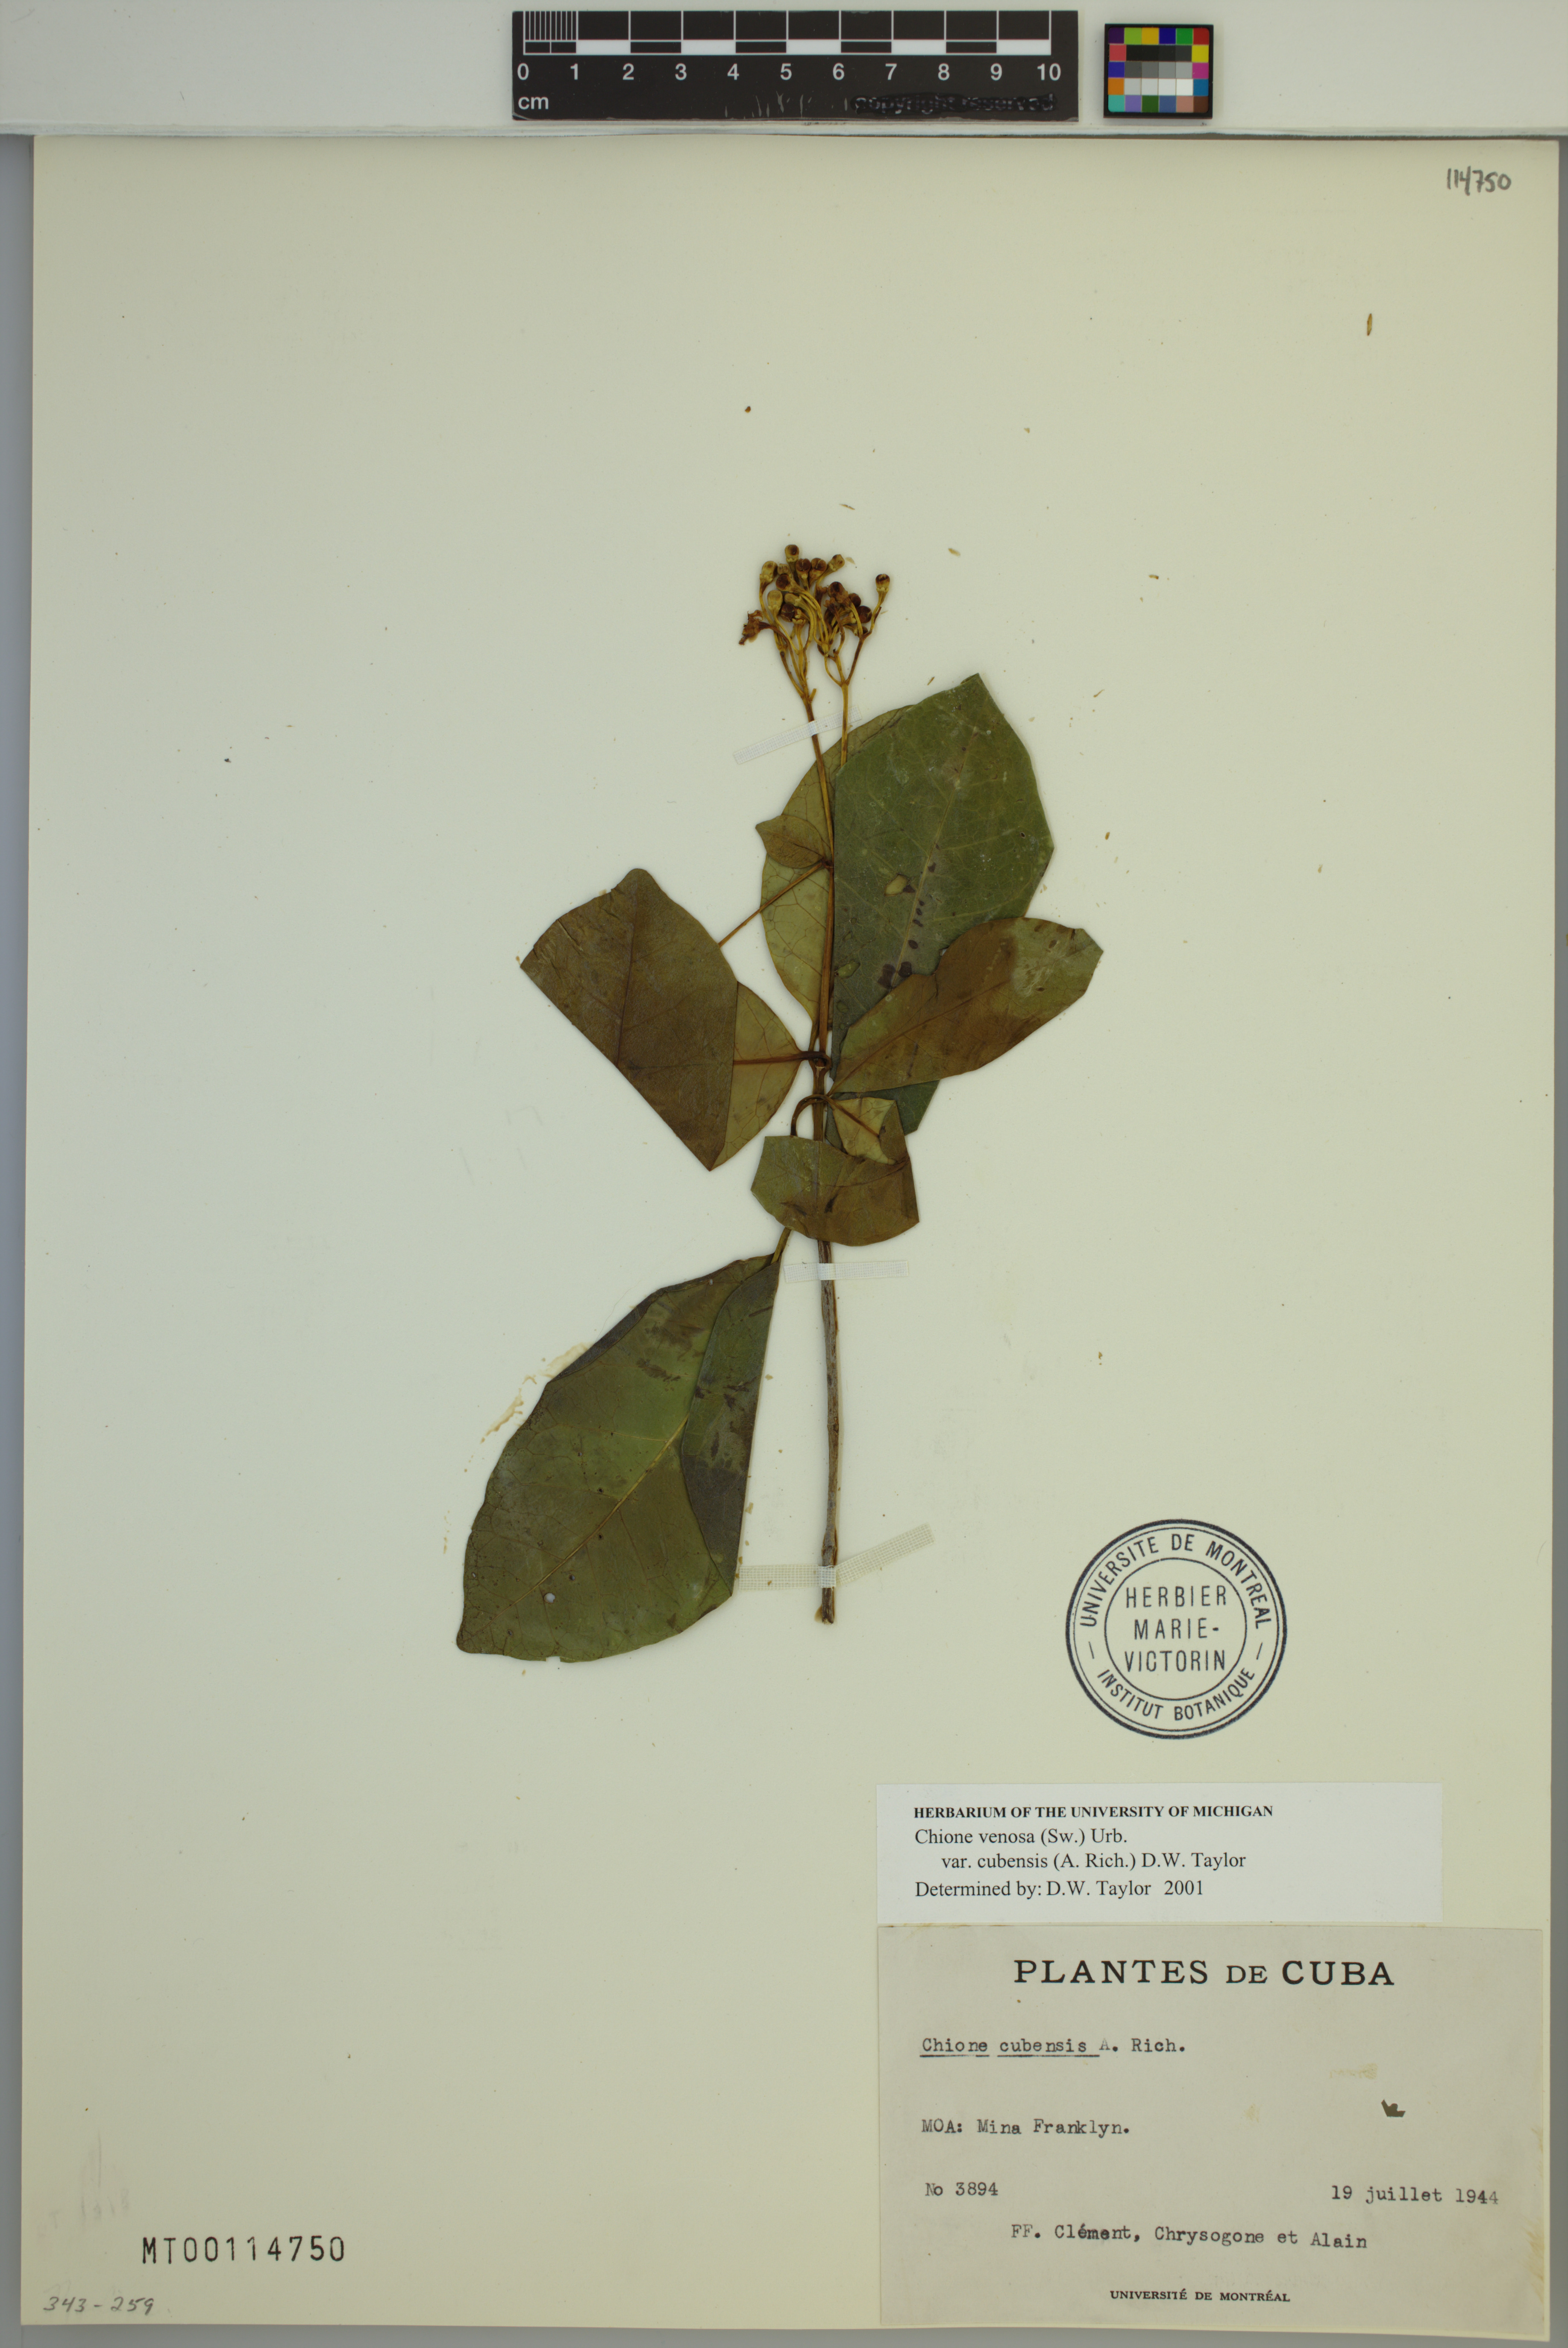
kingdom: Plantae
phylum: Tracheophyta
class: Magnoliopsida
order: Gentianales
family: Rubiaceae
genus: Chione
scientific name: Chione venosa
